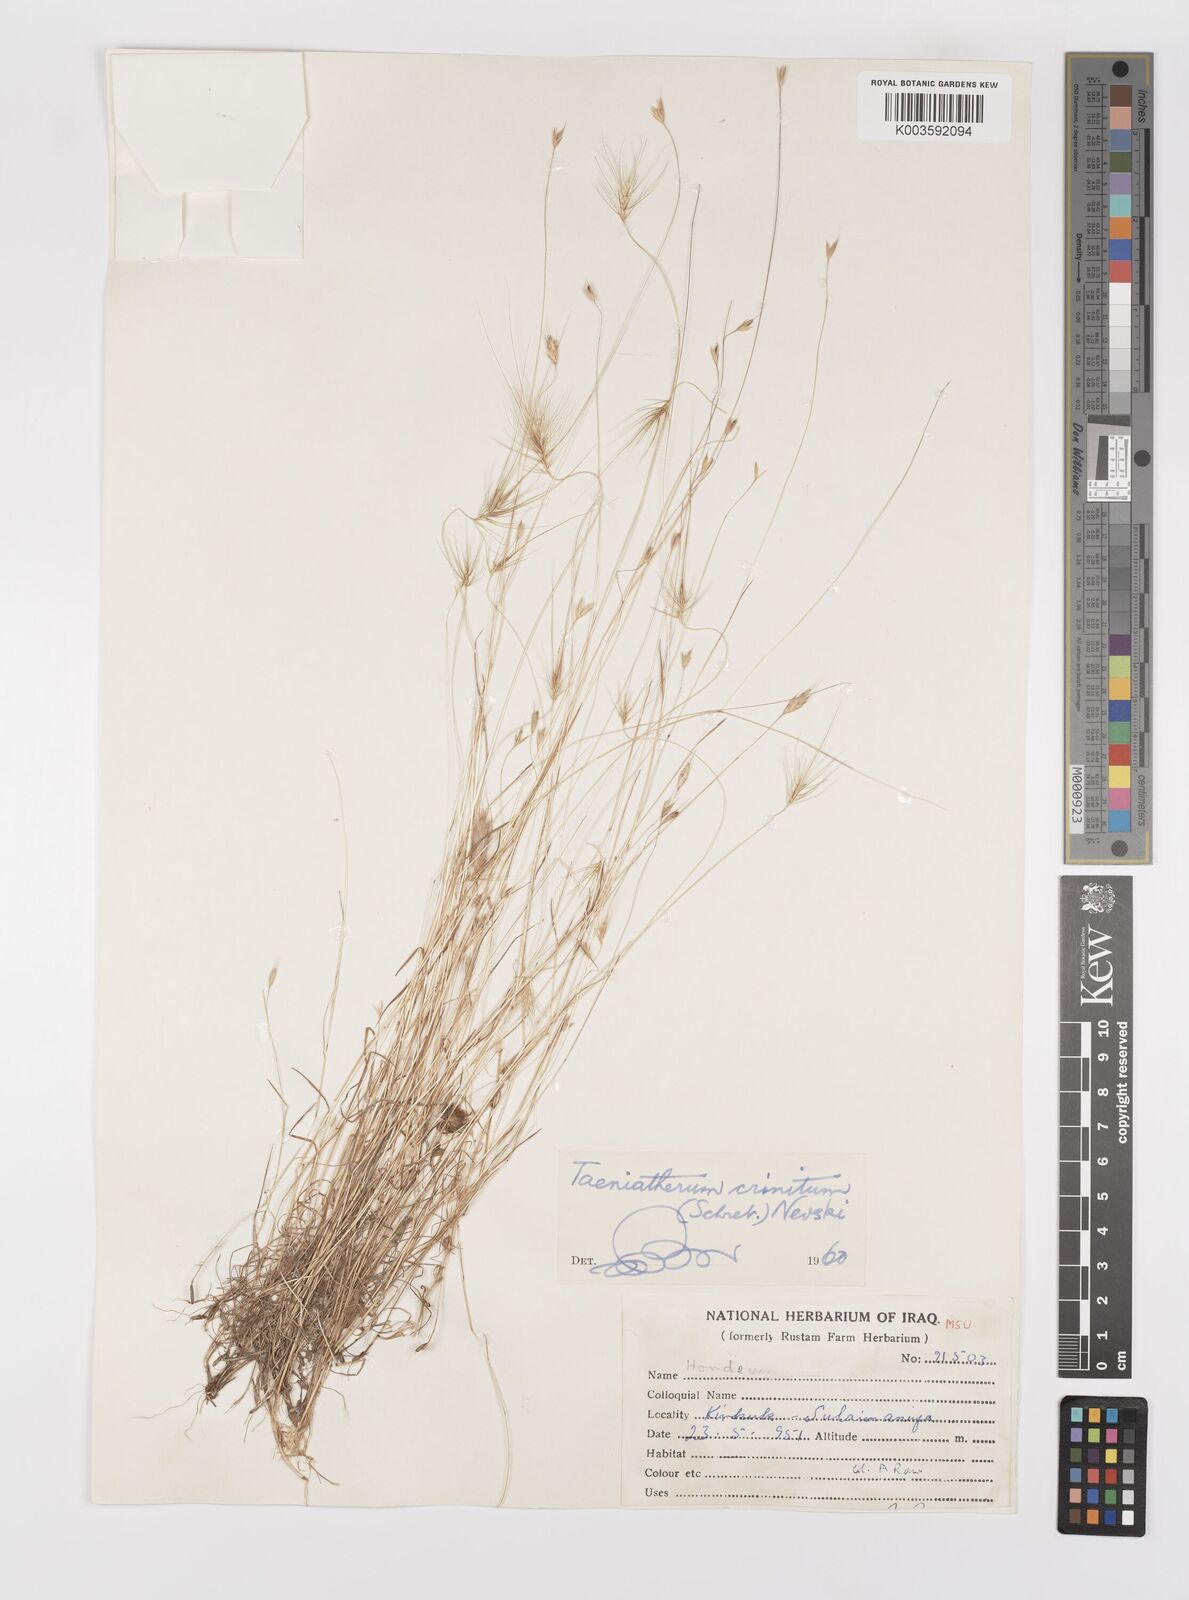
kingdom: Plantae
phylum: Tracheophyta
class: Liliopsida
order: Poales
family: Poaceae
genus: Taeniatherum
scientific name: Taeniatherum caput-medusae
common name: Medusahead
